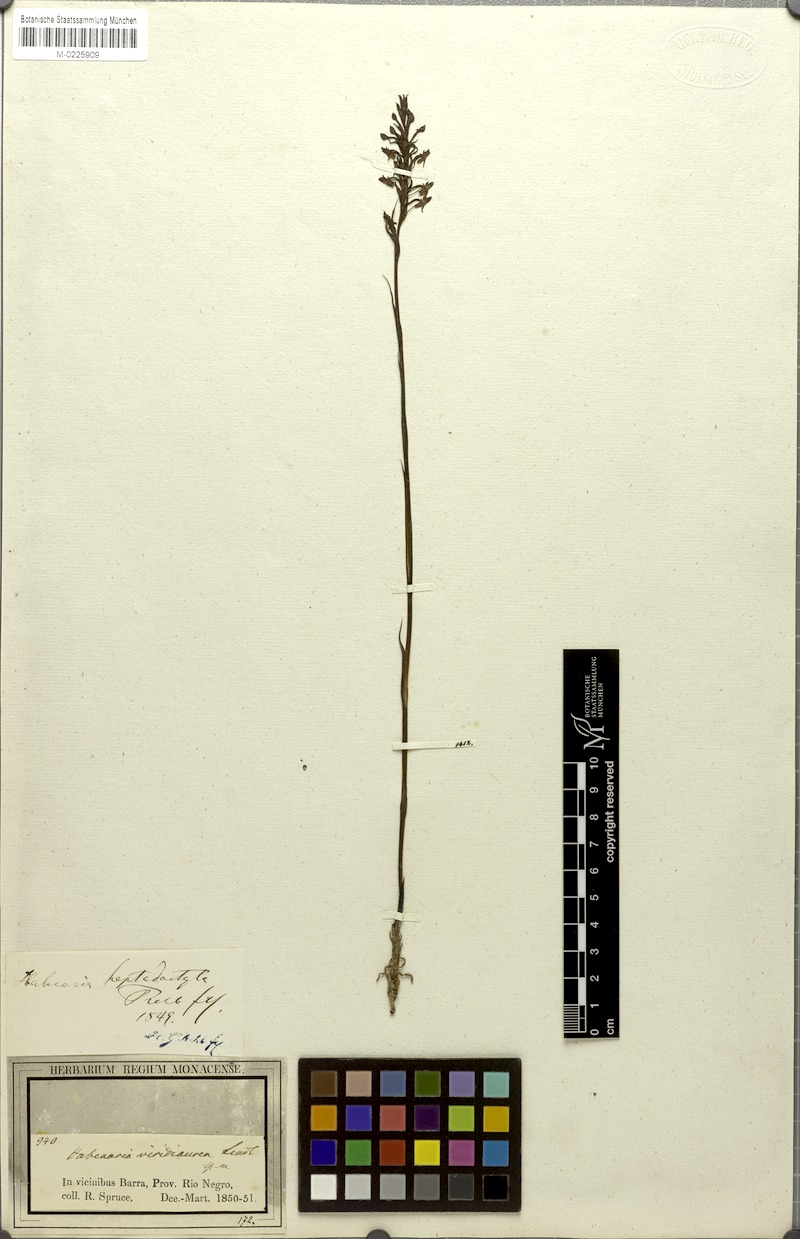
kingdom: Plantae
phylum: Tracheophyta
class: Liliopsida
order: Asparagales
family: Orchidaceae
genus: Habenaria
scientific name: Habenaria heptadactyla
